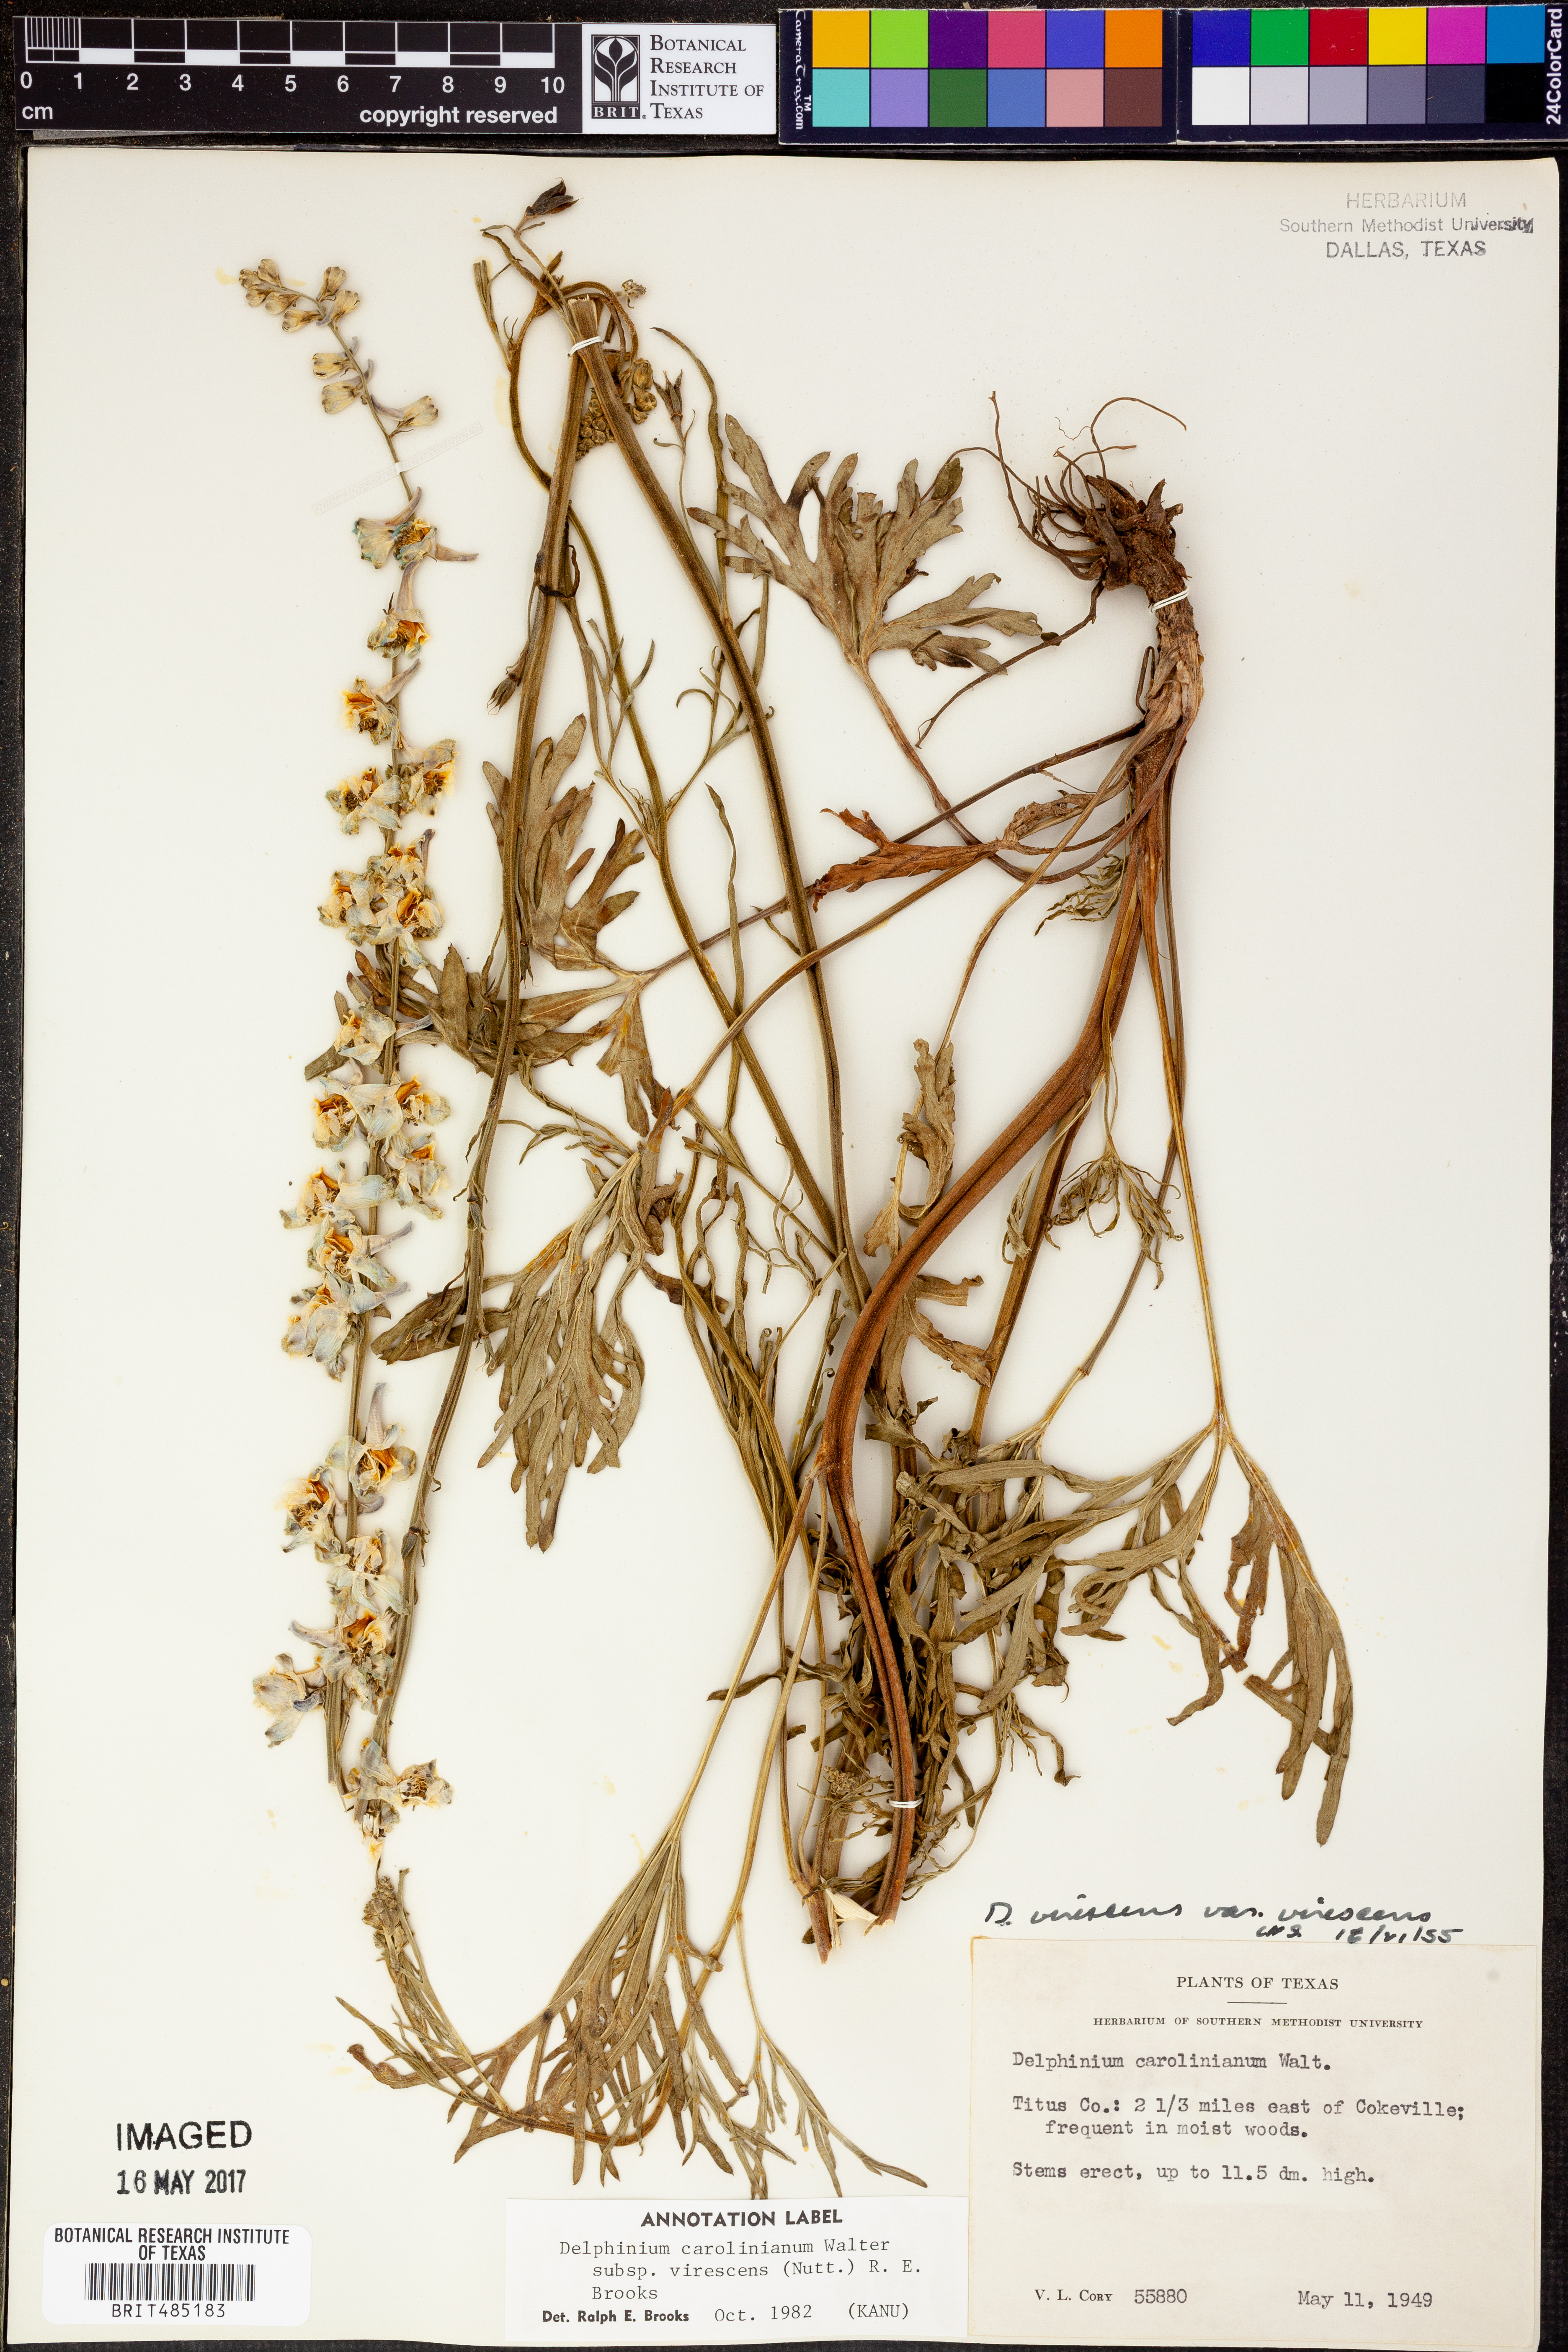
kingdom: Plantae
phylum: Tracheophyta
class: Magnoliopsida
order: Ranunculales
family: Ranunculaceae
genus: Delphinium
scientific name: Delphinium carolinianum
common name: Carolina larkspur
